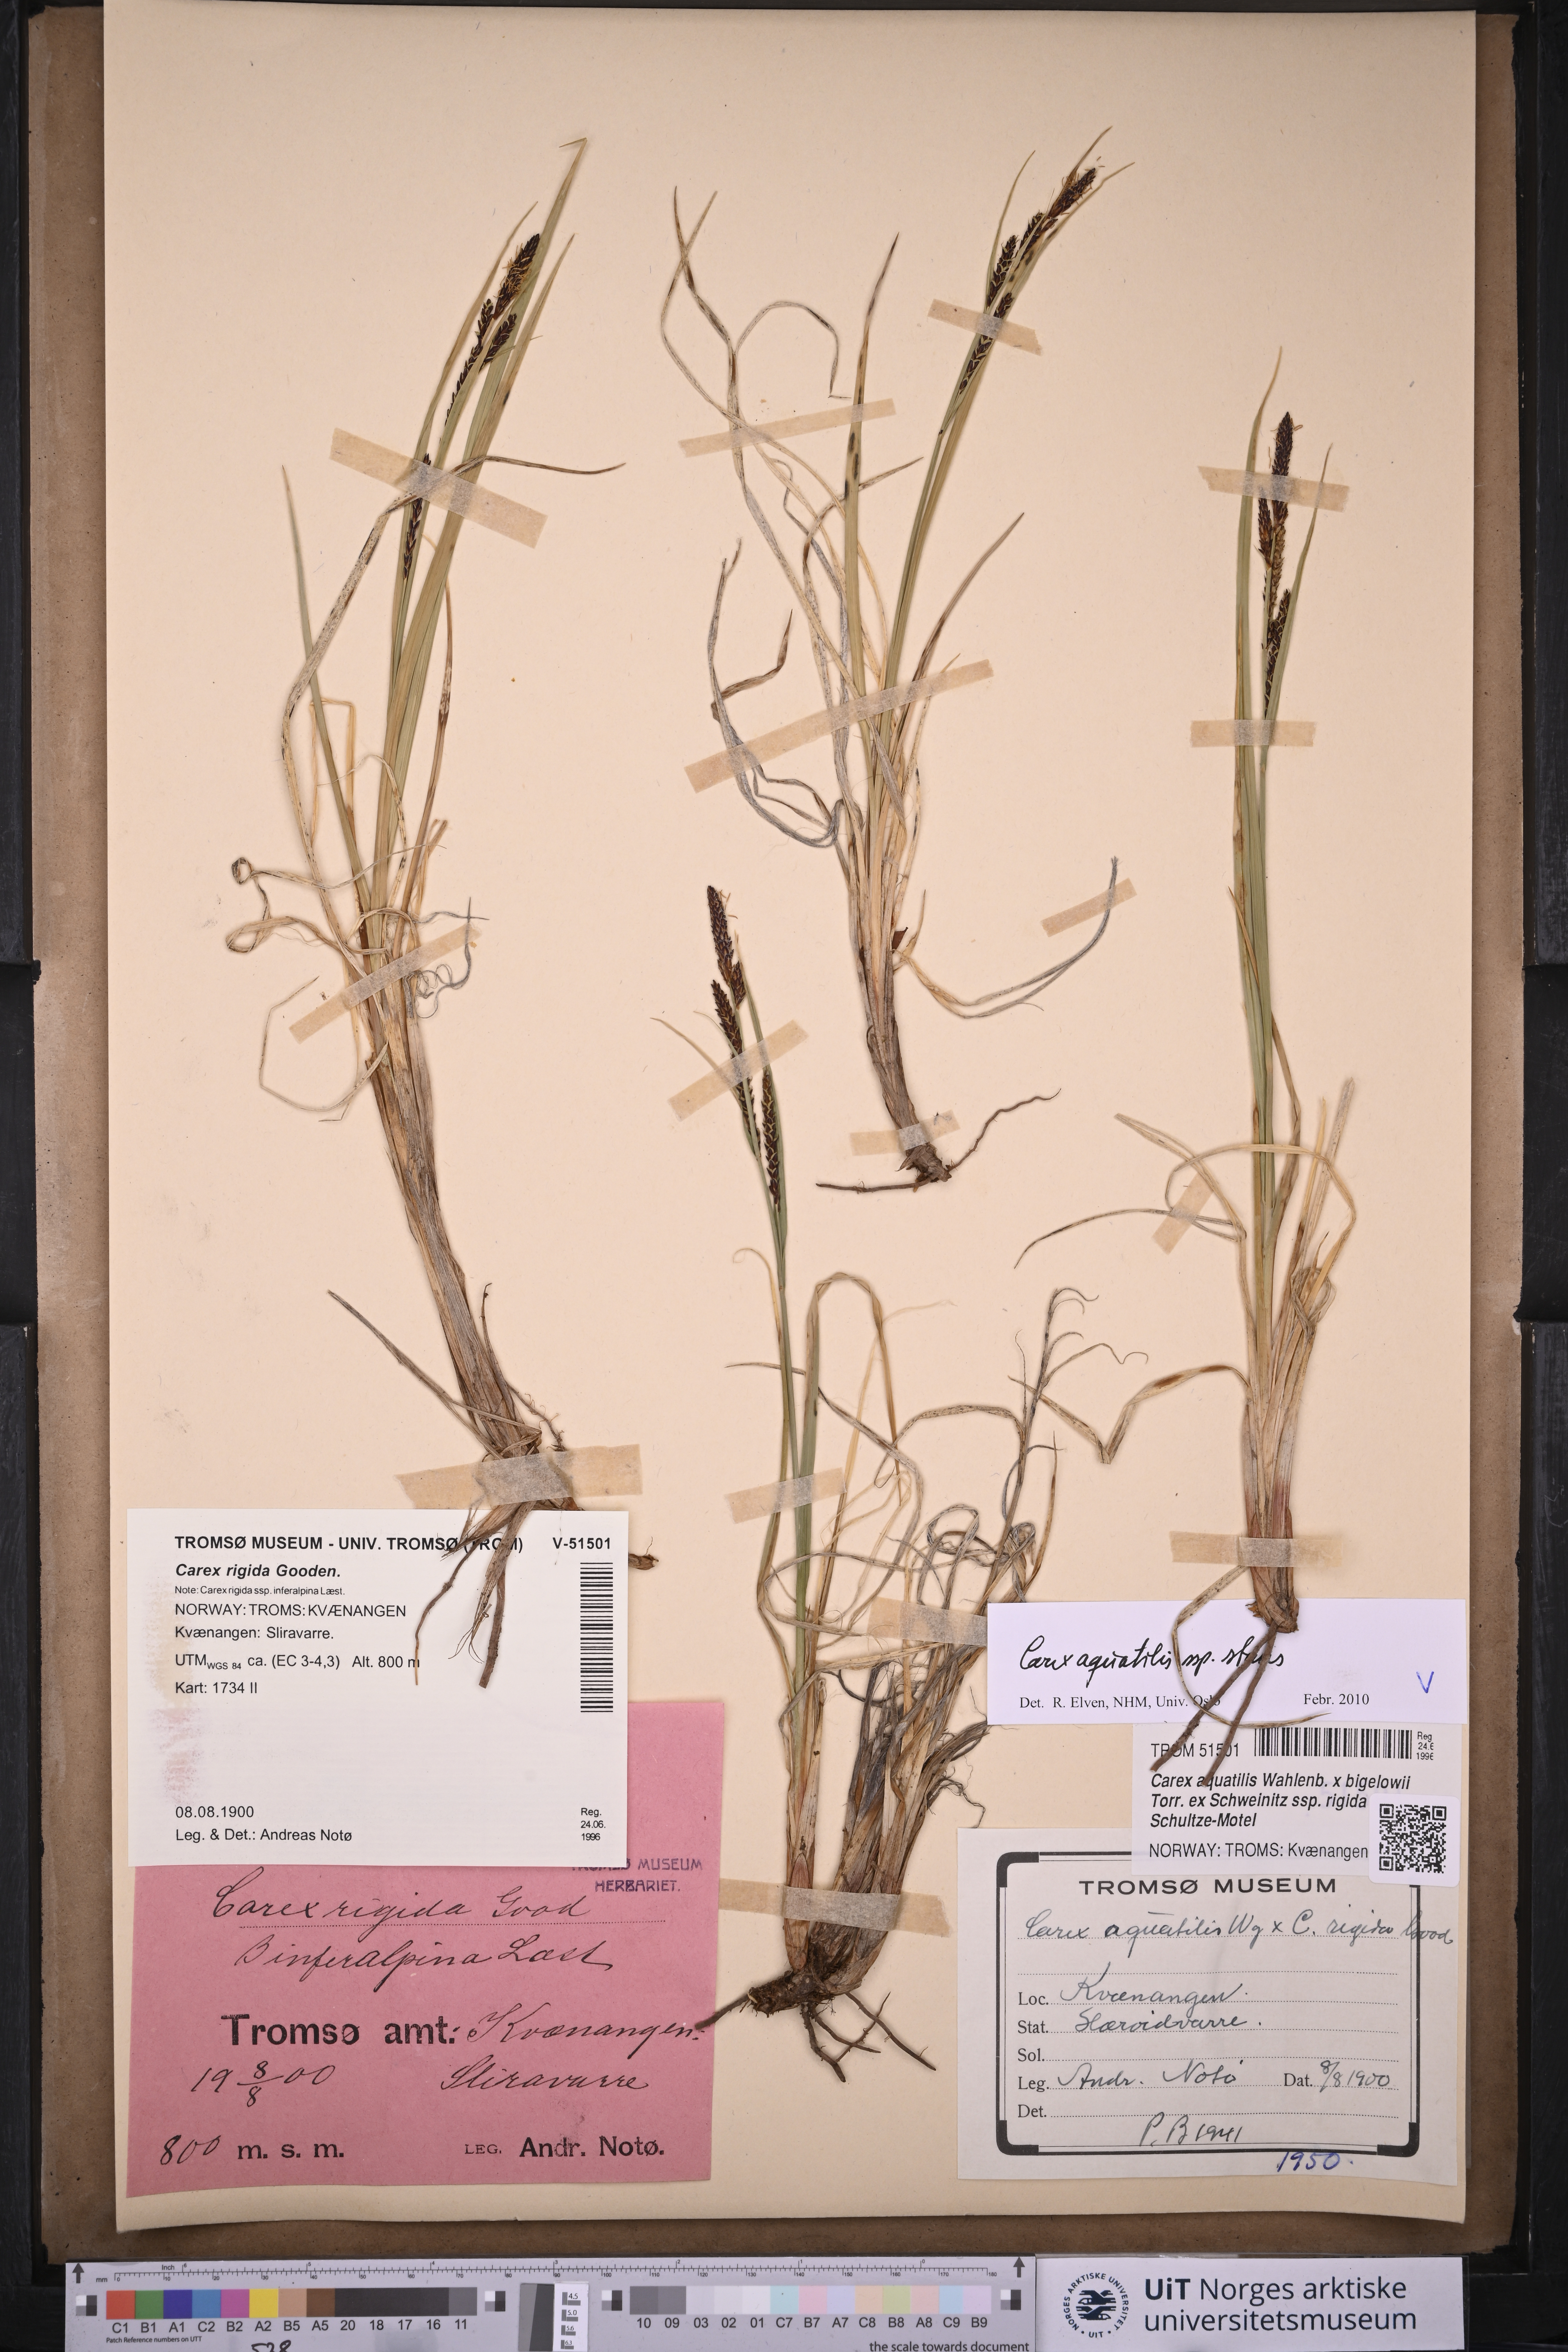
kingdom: Plantae
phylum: Tracheophyta
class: Liliopsida
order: Poales
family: Cyperaceae
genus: Carex
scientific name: Carex aquatilis
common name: Water sedge
